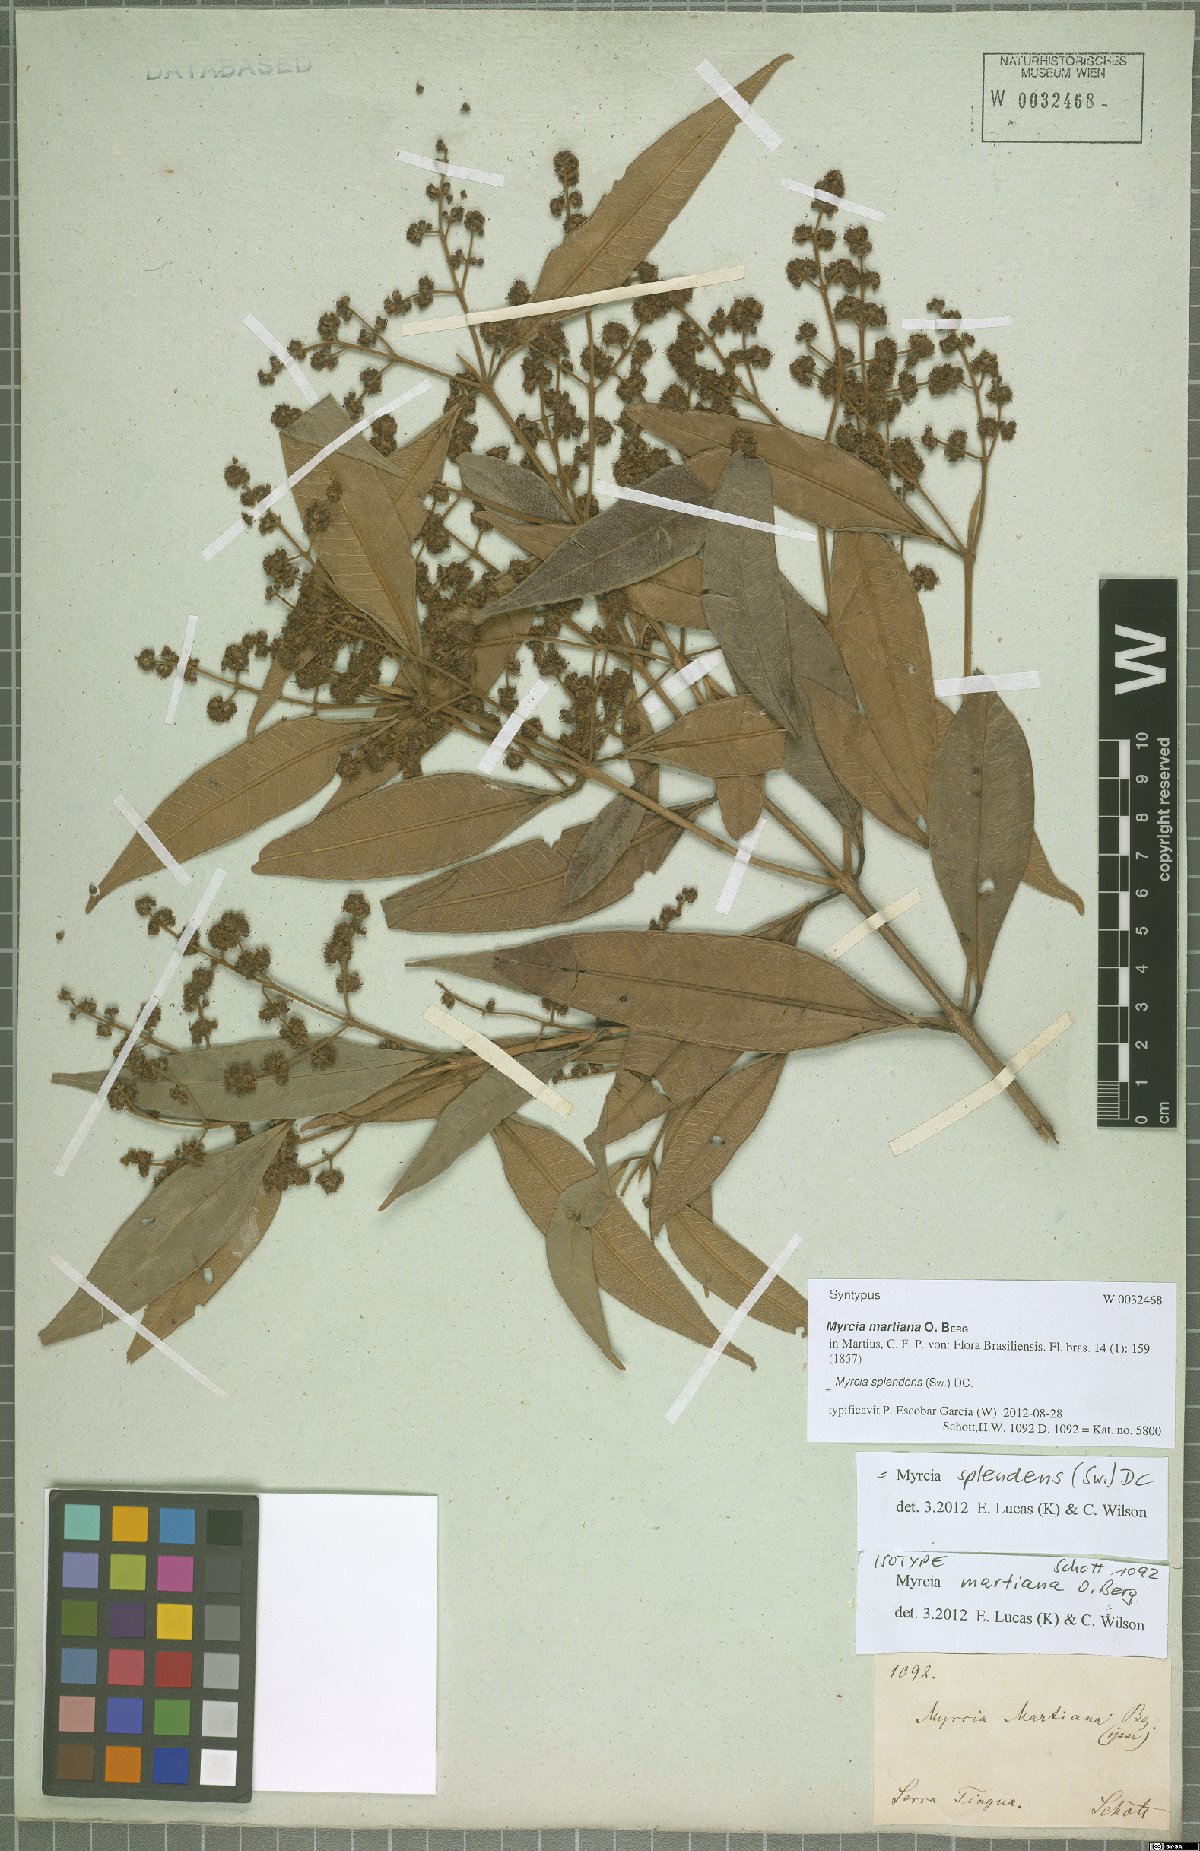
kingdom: Plantae
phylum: Tracheophyta
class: Magnoliopsida
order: Myrtales
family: Myrtaceae
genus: Myrcia
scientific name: Myrcia splendens
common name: Surinam cherry
